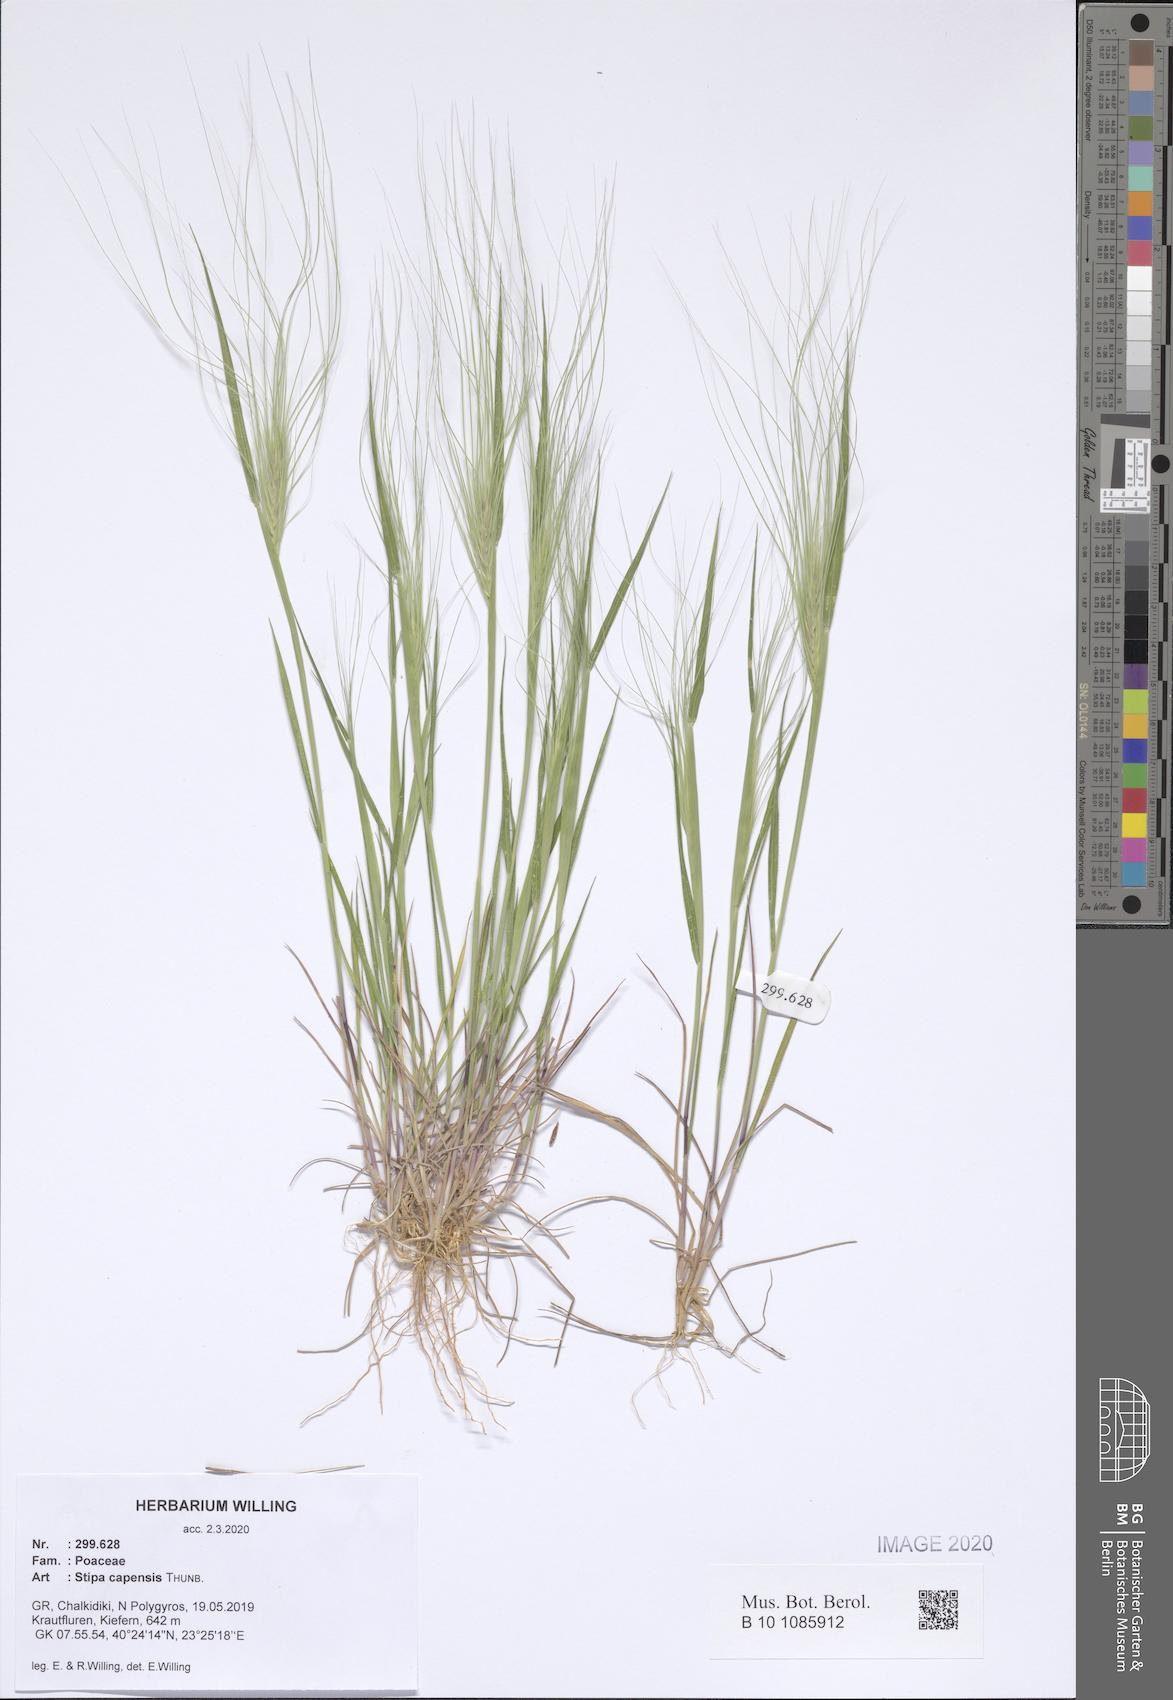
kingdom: Plantae
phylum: Tracheophyta
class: Liliopsida
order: Poales
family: Poaceae
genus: Stipellula
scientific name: Stipellula capensis
